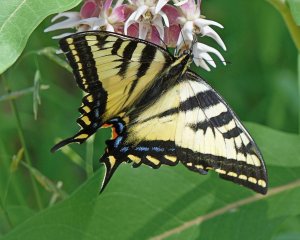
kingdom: Animalia
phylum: Arthropoda
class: Insecta
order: Lepidoptera
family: Papilionidae
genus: Pterourus
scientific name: Pterourus rutulus
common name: Western Tiger Swallowtail
